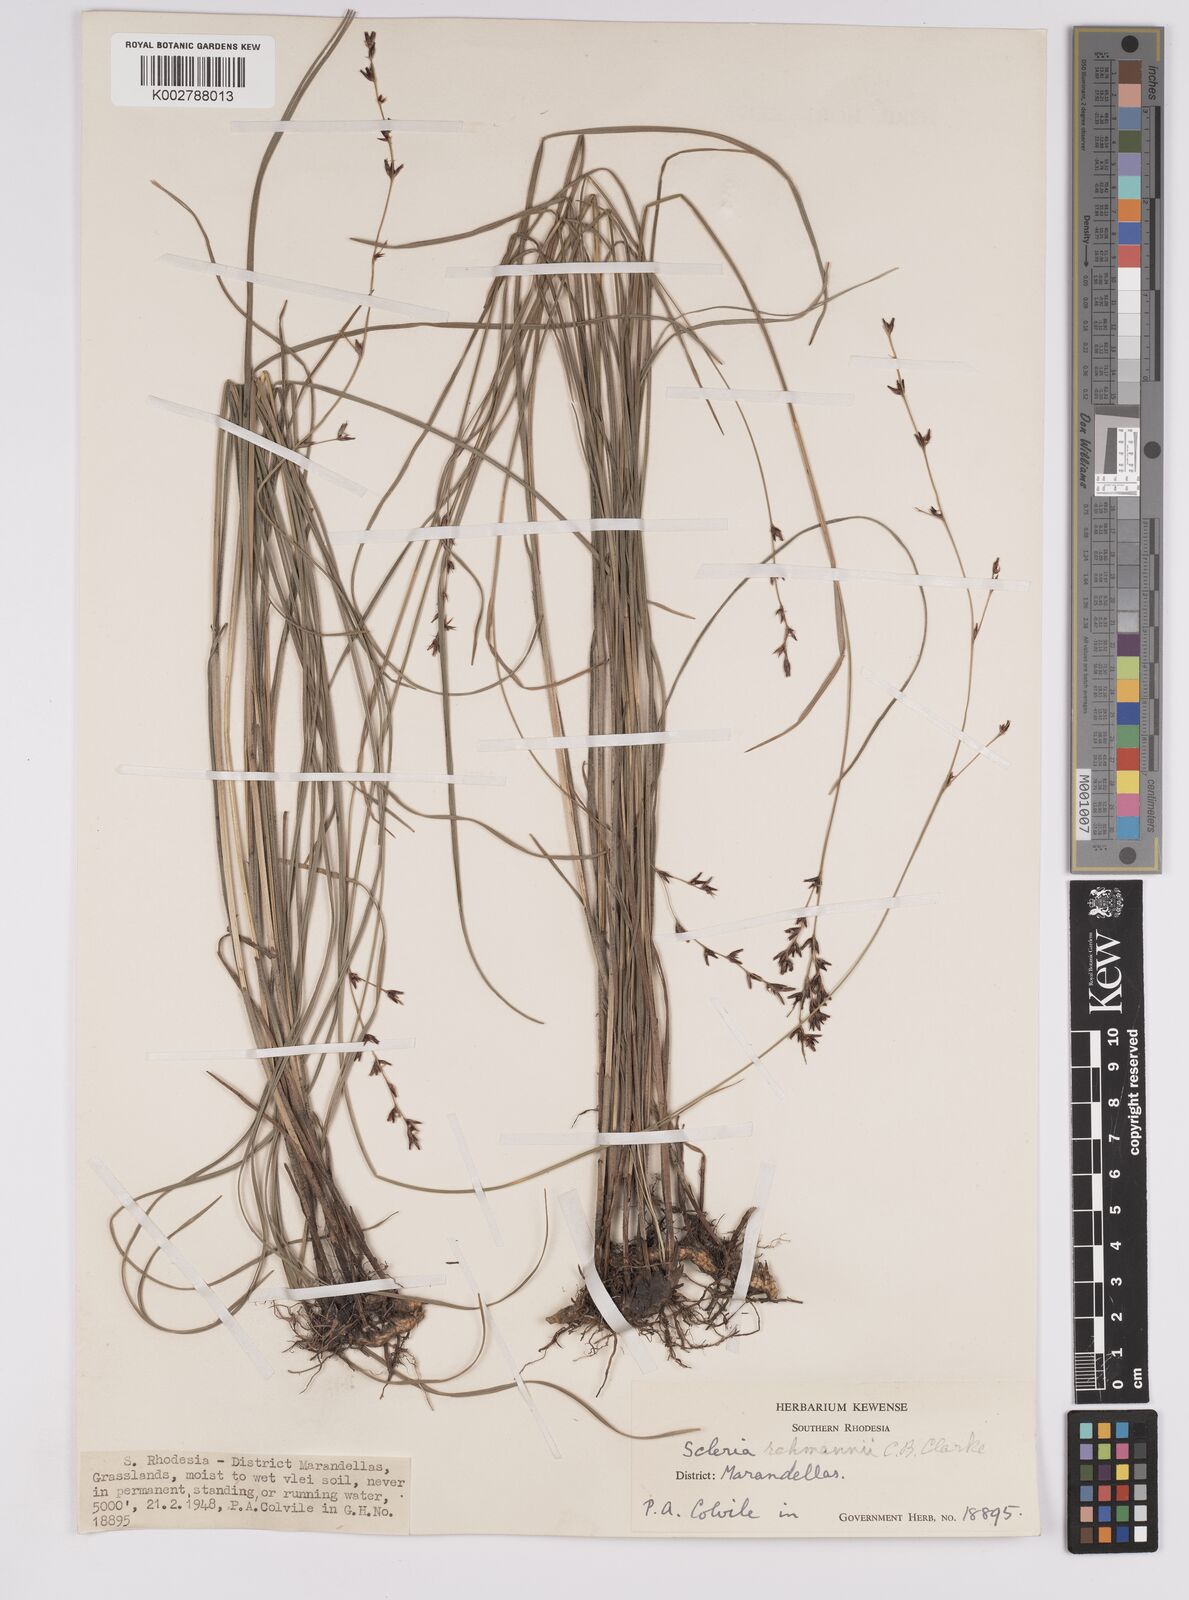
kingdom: Plantae
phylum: Tracheophyta
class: Liliopsida
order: Poales
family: Cyperaceae
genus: Scleria
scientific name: Scleria rehmannii
